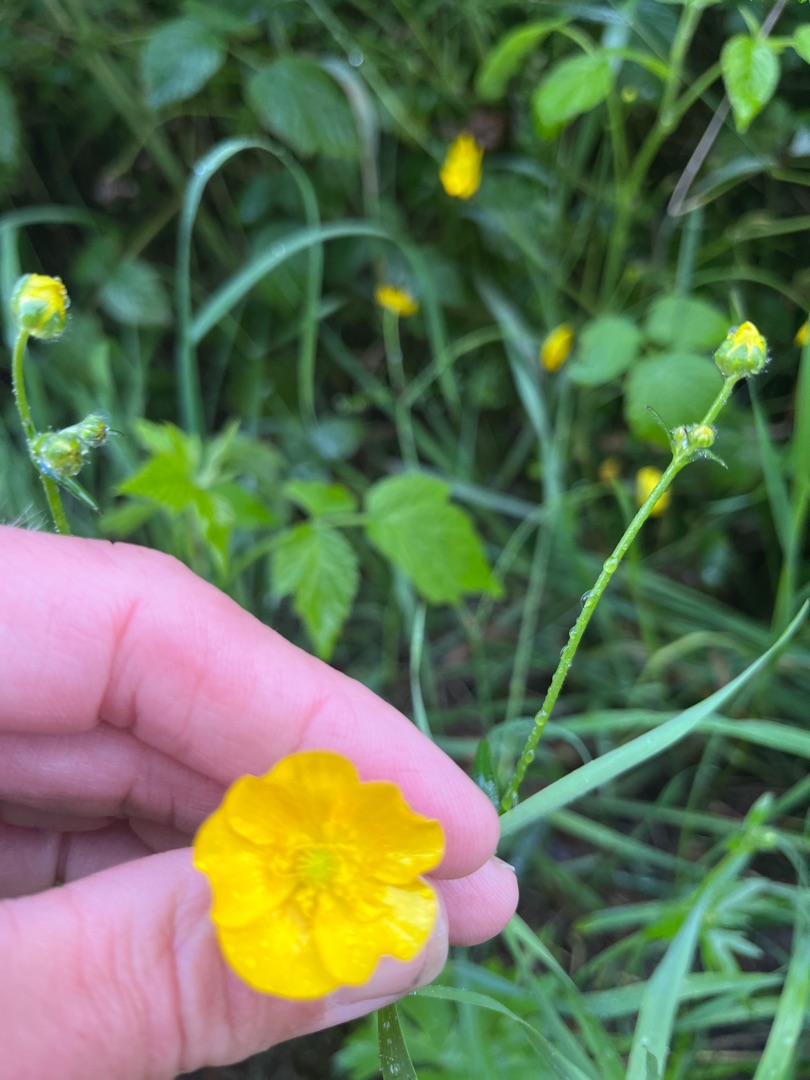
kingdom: Plantae
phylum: Tracheophyta
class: Magnoliopsida
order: Ranunculales
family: Ranunculaceae
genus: Ranunculus
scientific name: Ranunculus acris
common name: Bidende ranunkel
